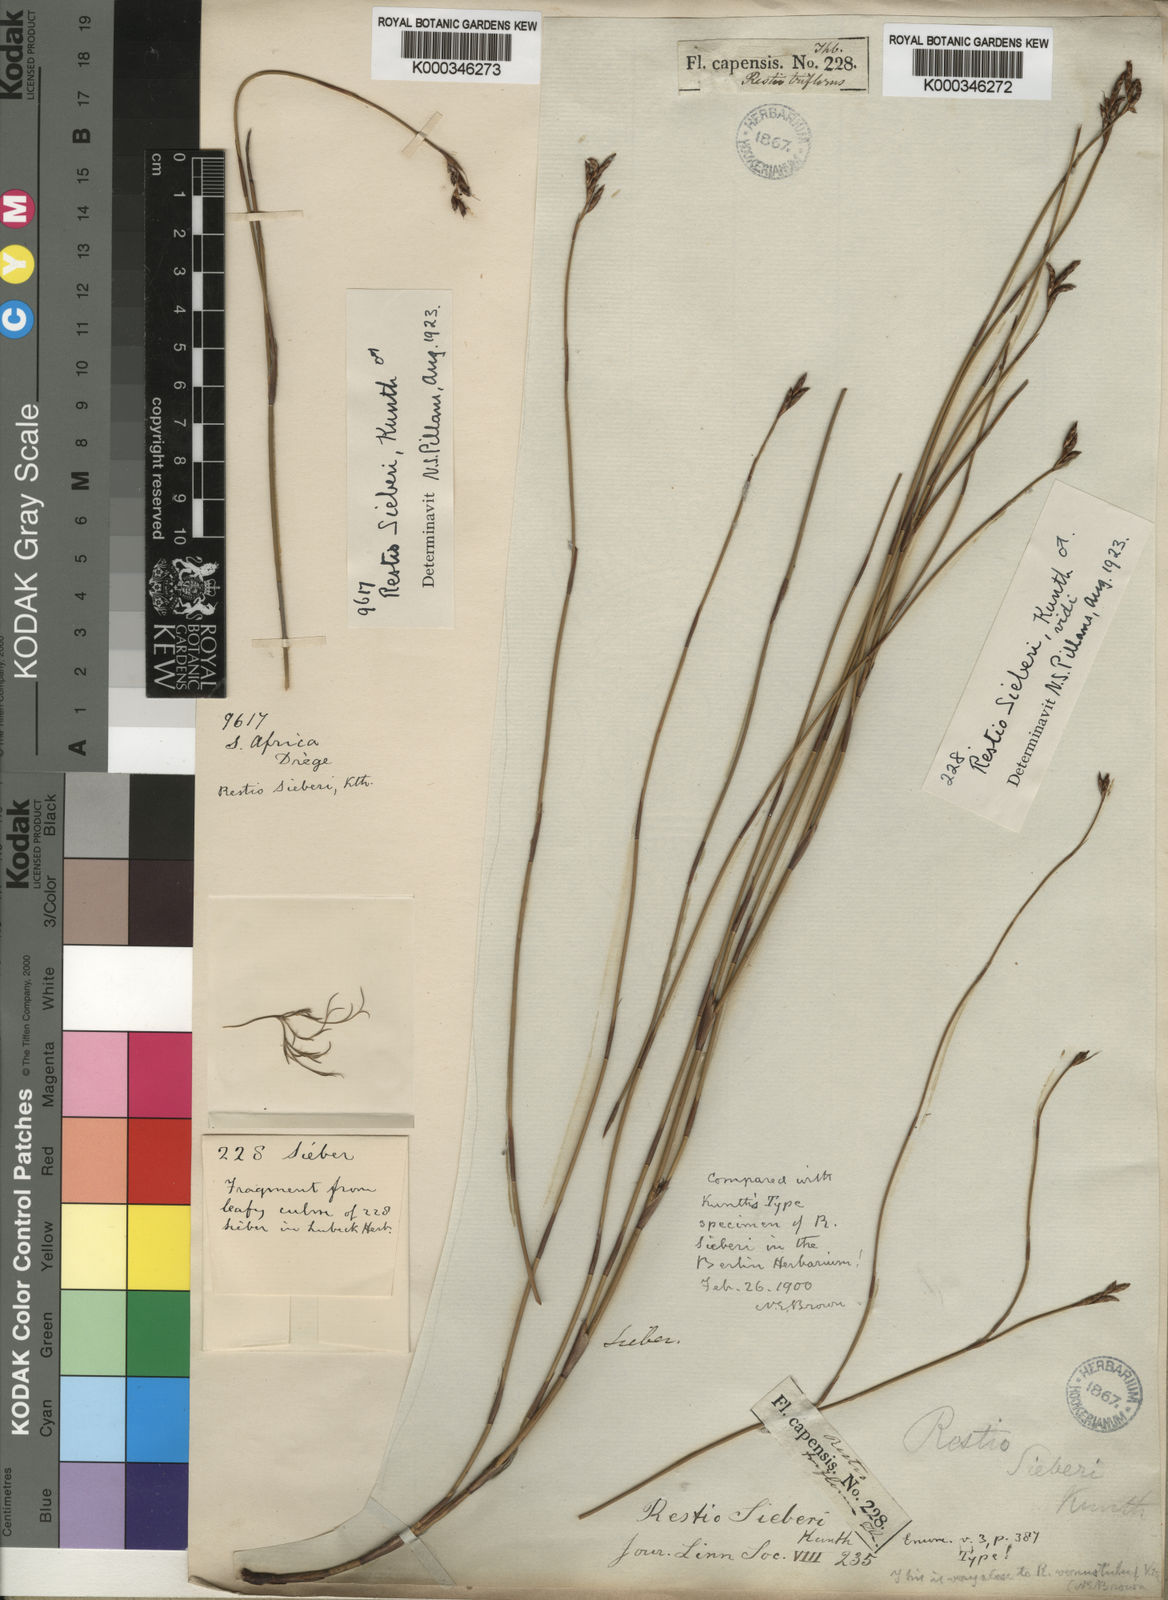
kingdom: Plantae
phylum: Tracheophyta
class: Liliopsida
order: Poales
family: Restionaceae
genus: Restio
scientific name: Restio sieberi
